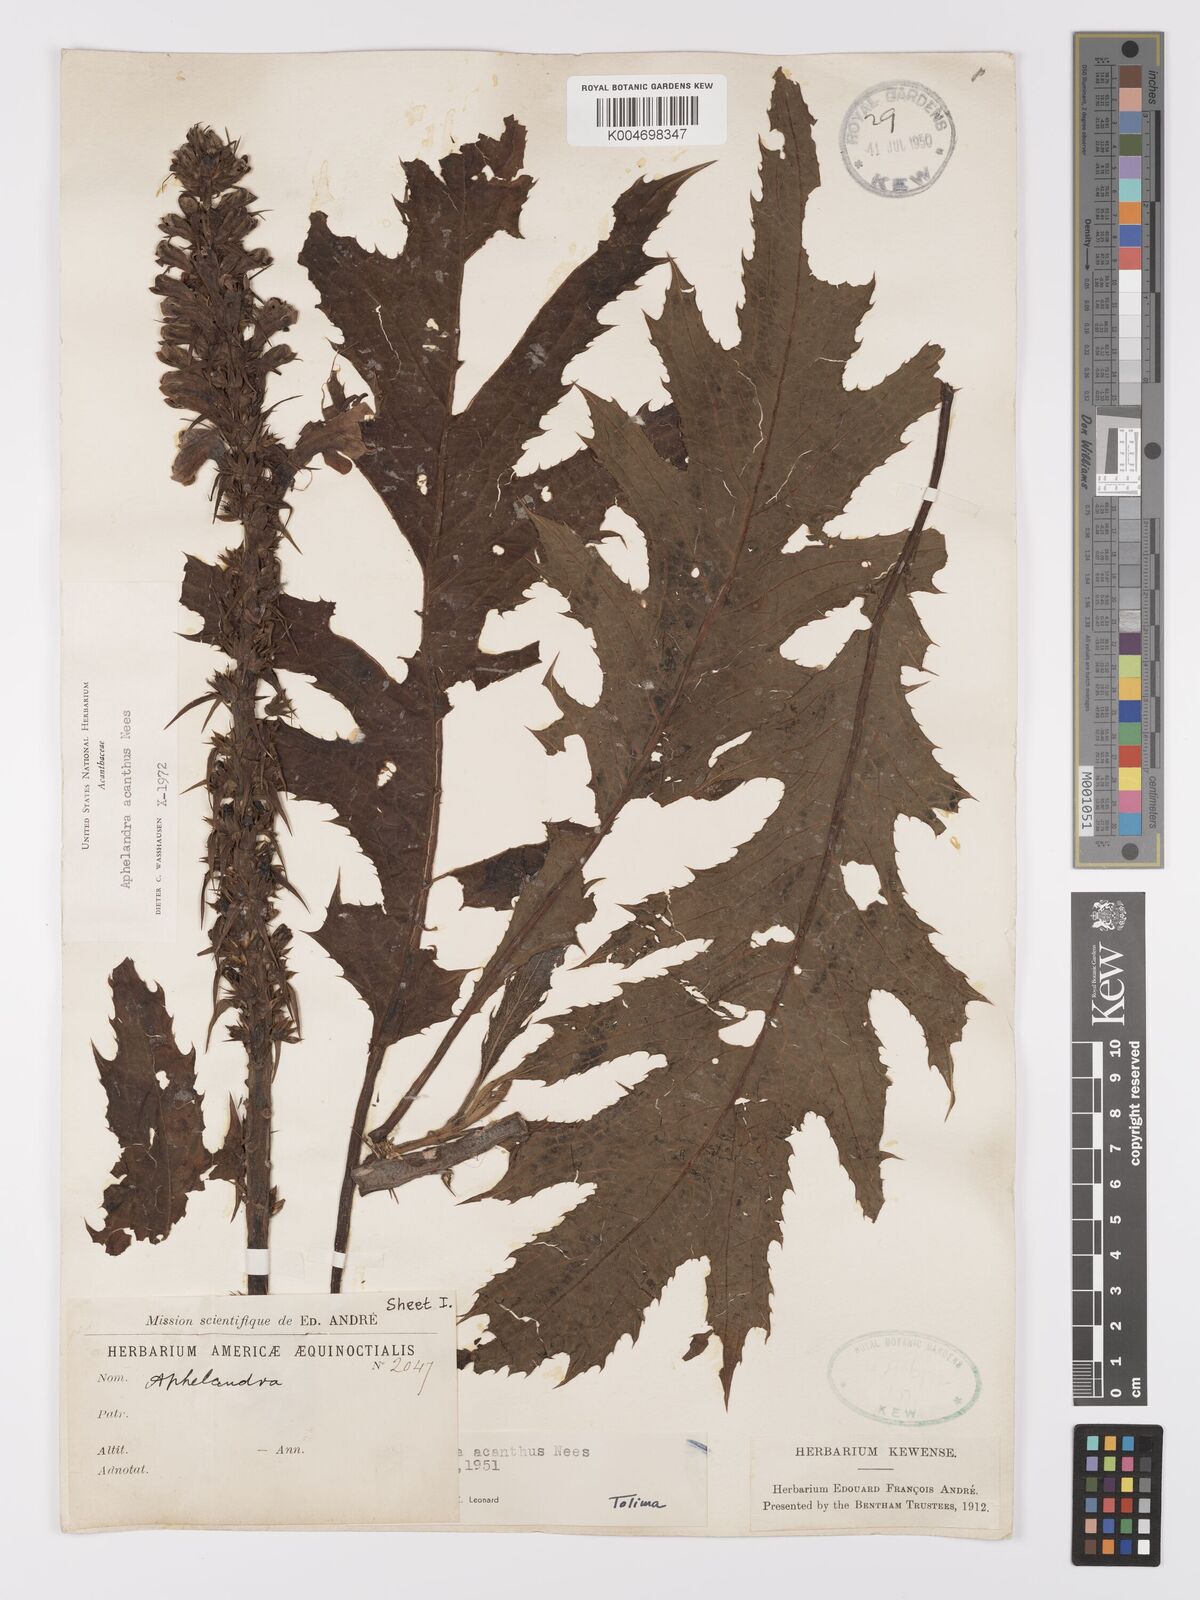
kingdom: Plantae
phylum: Tracheophyta
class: Magnoliopsida
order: Lamiales
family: Acanthaceae
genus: Aphelandra
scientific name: Aphelandra acanthus
